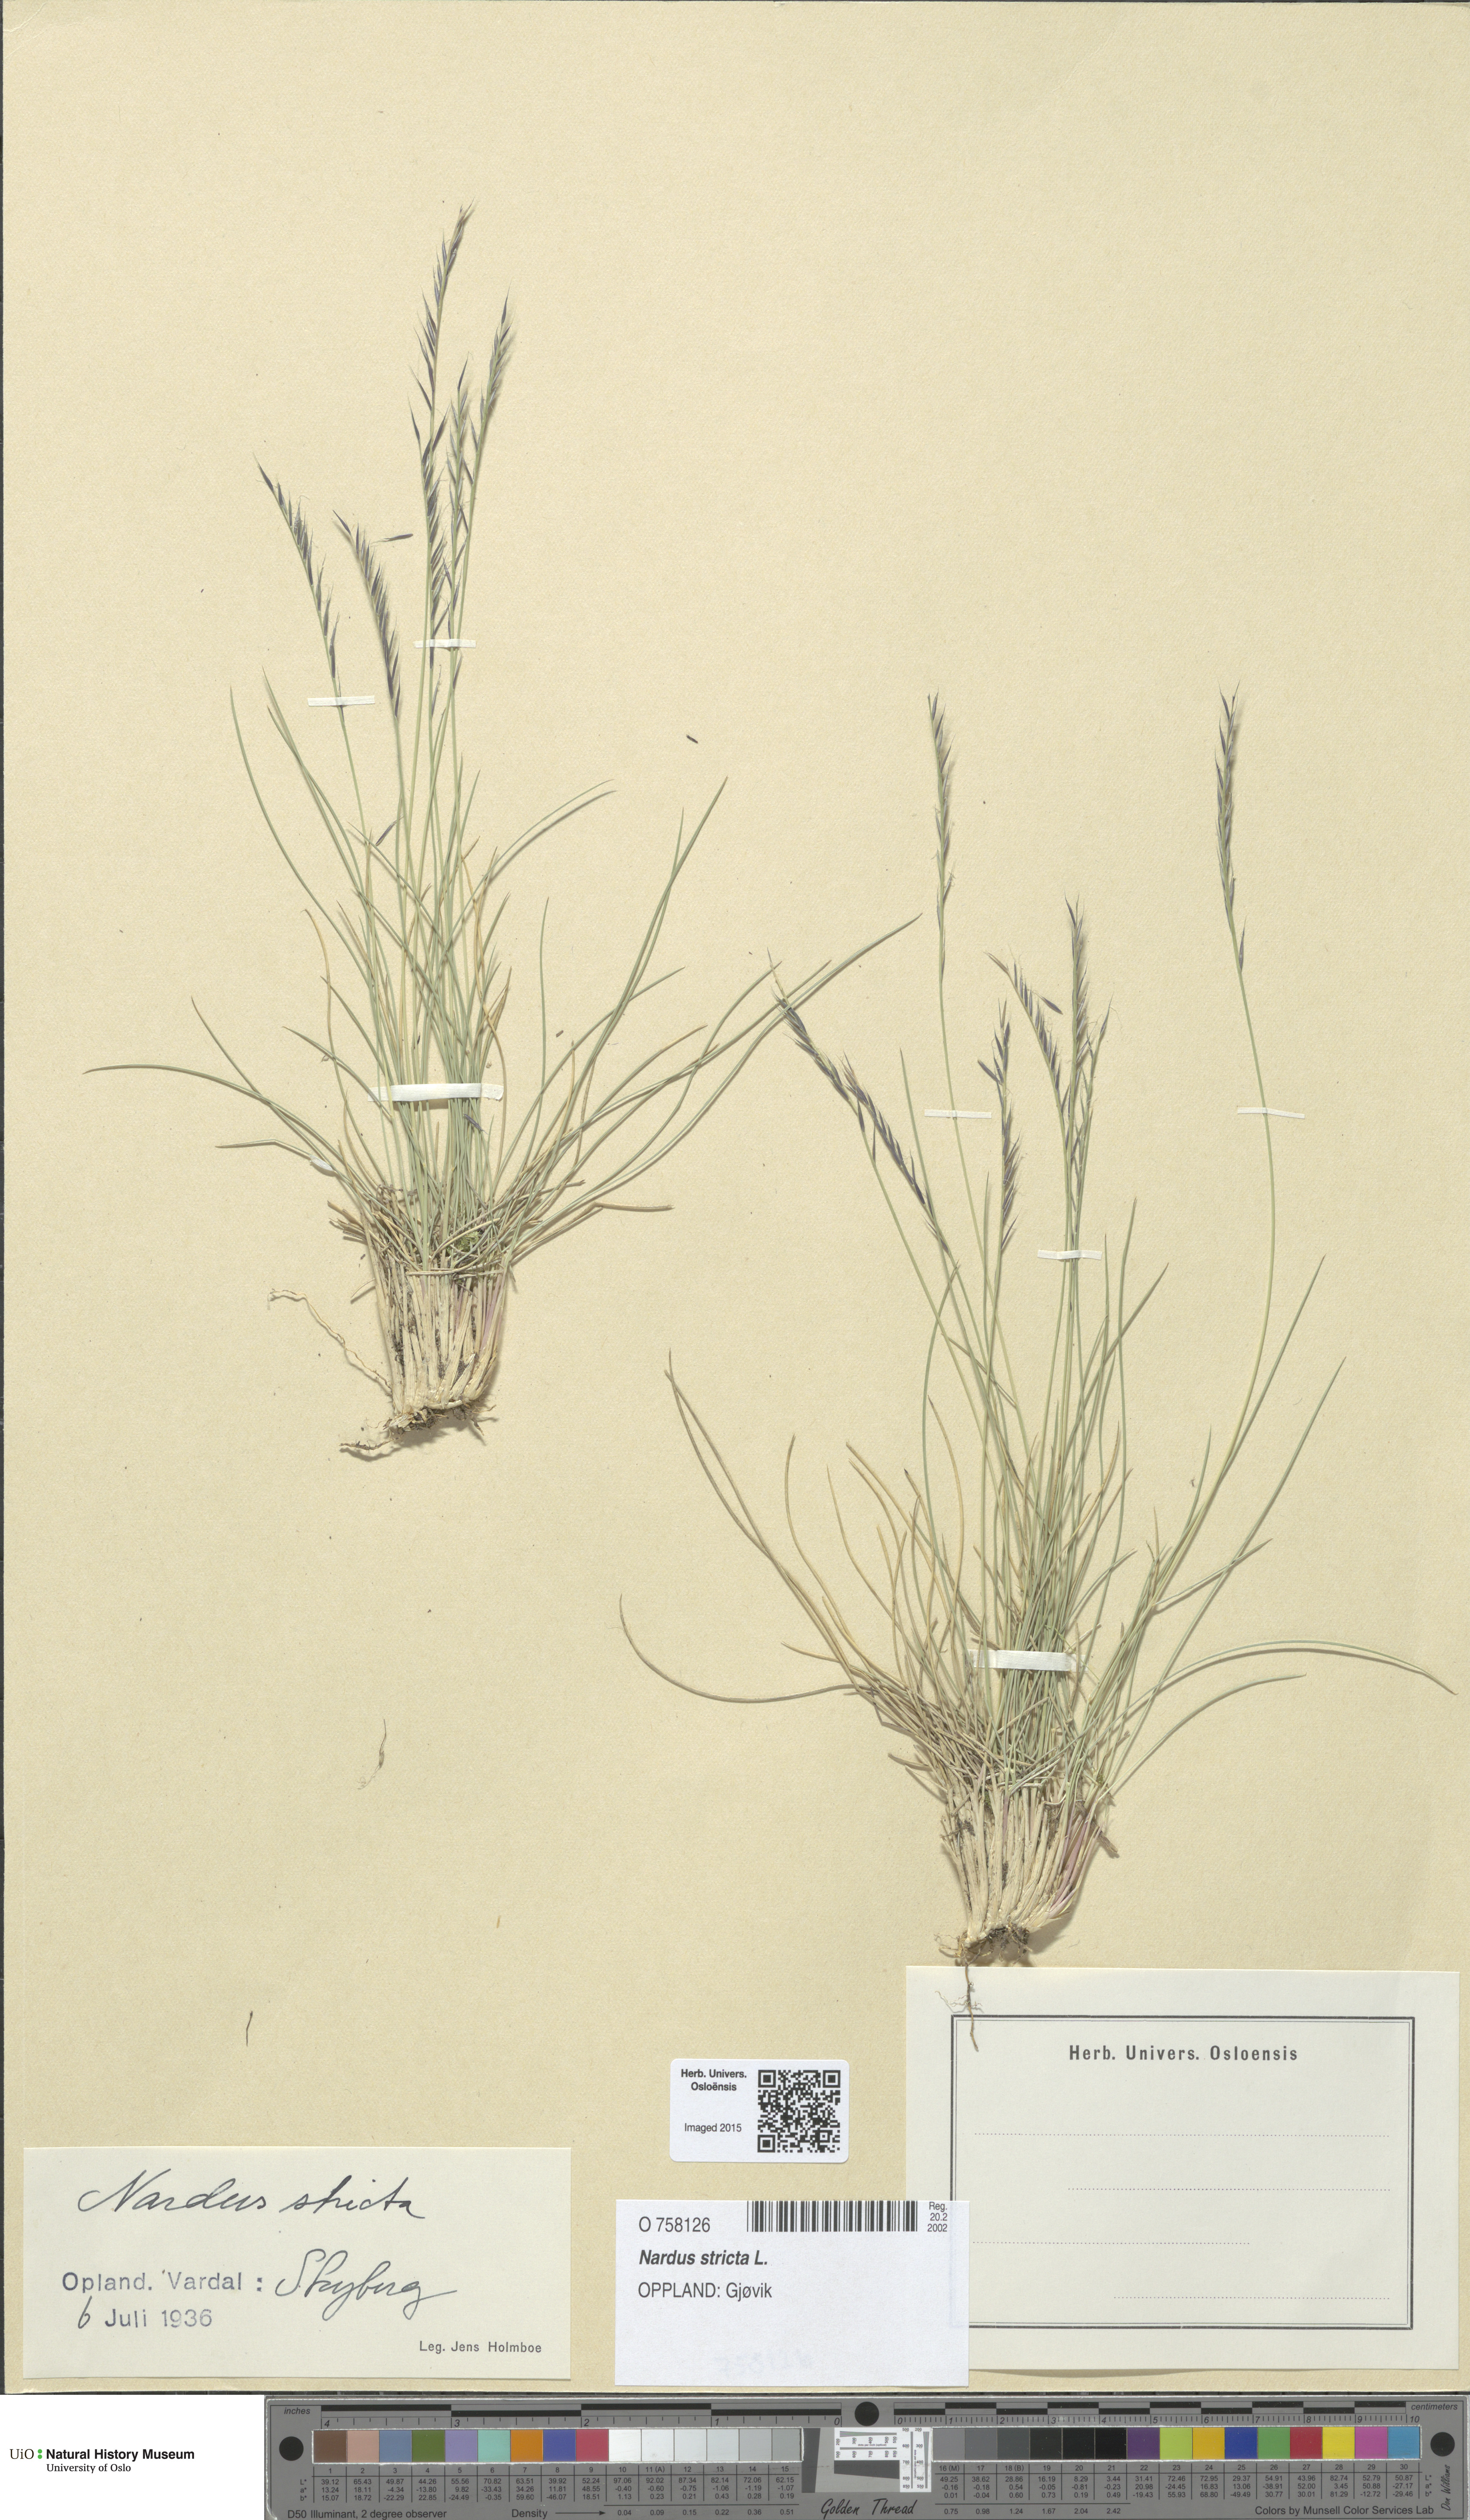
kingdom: Plantae
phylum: Tracheophyta
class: Liliopsida
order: Poales
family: Poaceae
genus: Nardus
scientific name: Nardus stricta
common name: Mat-grass
